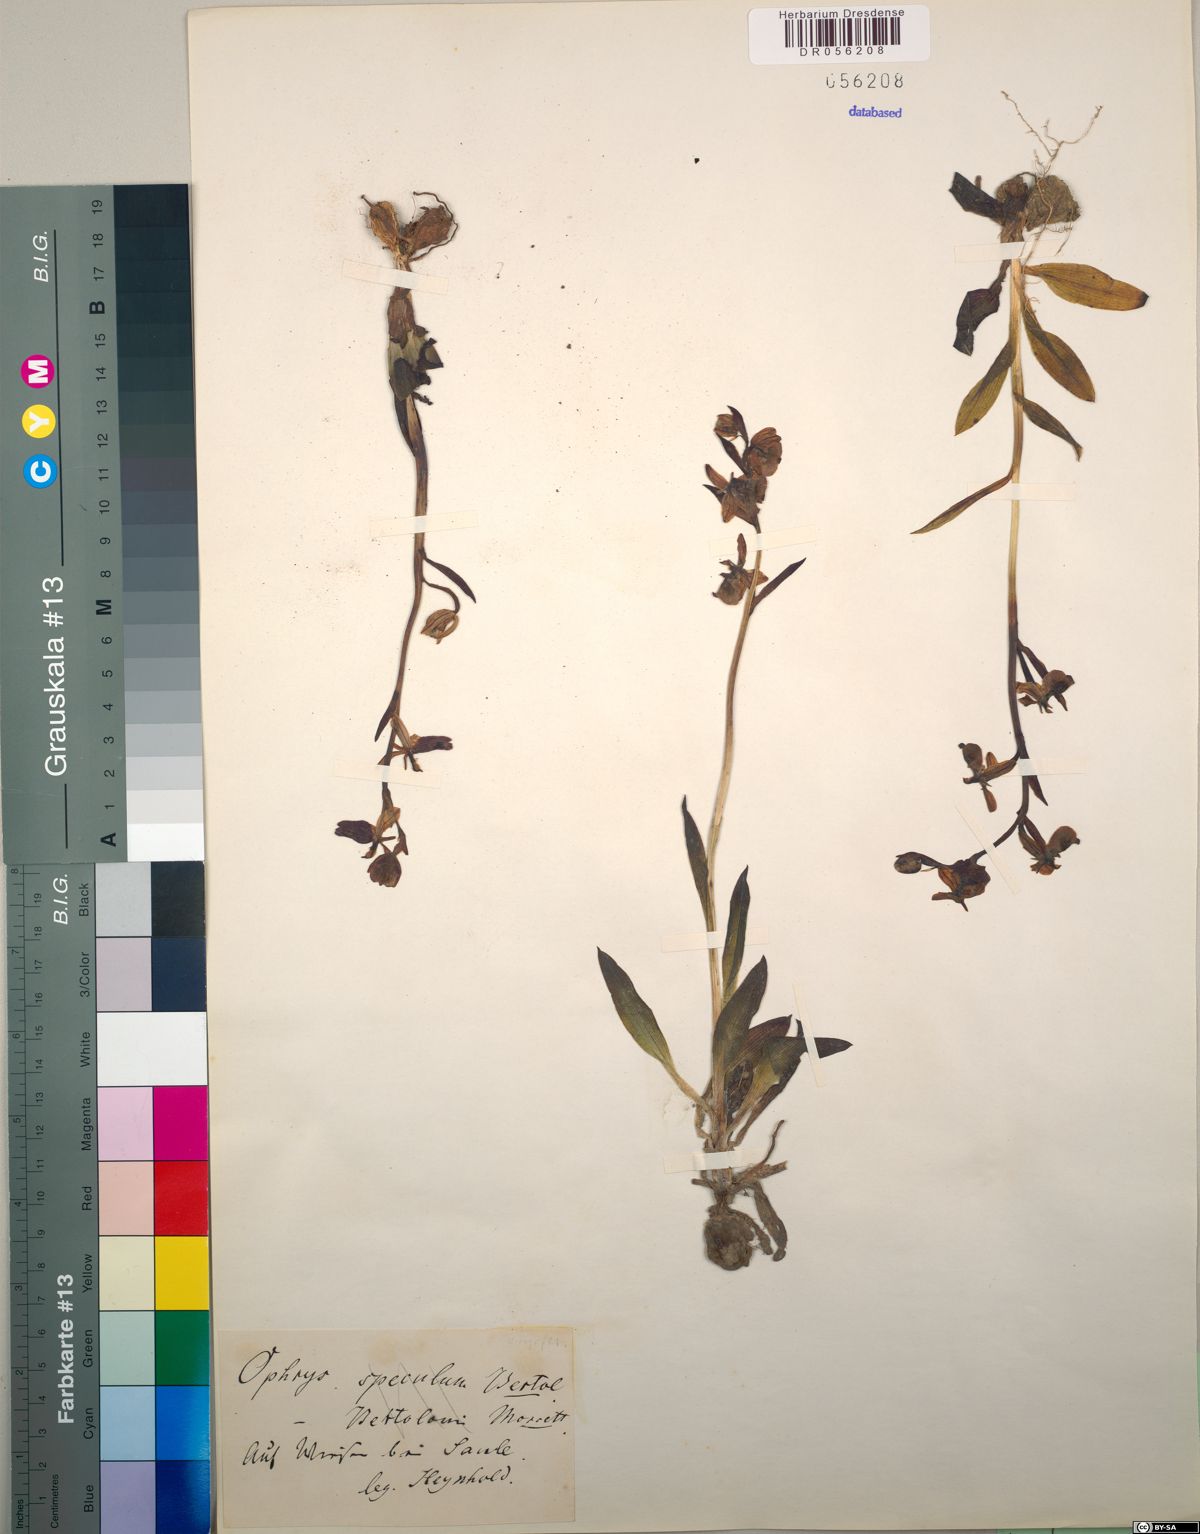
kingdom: Plantae
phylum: Tracheophyta
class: Liliopsida
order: Asparagales
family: Orchidaceae
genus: Ophrys
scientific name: Ophrys speculum
